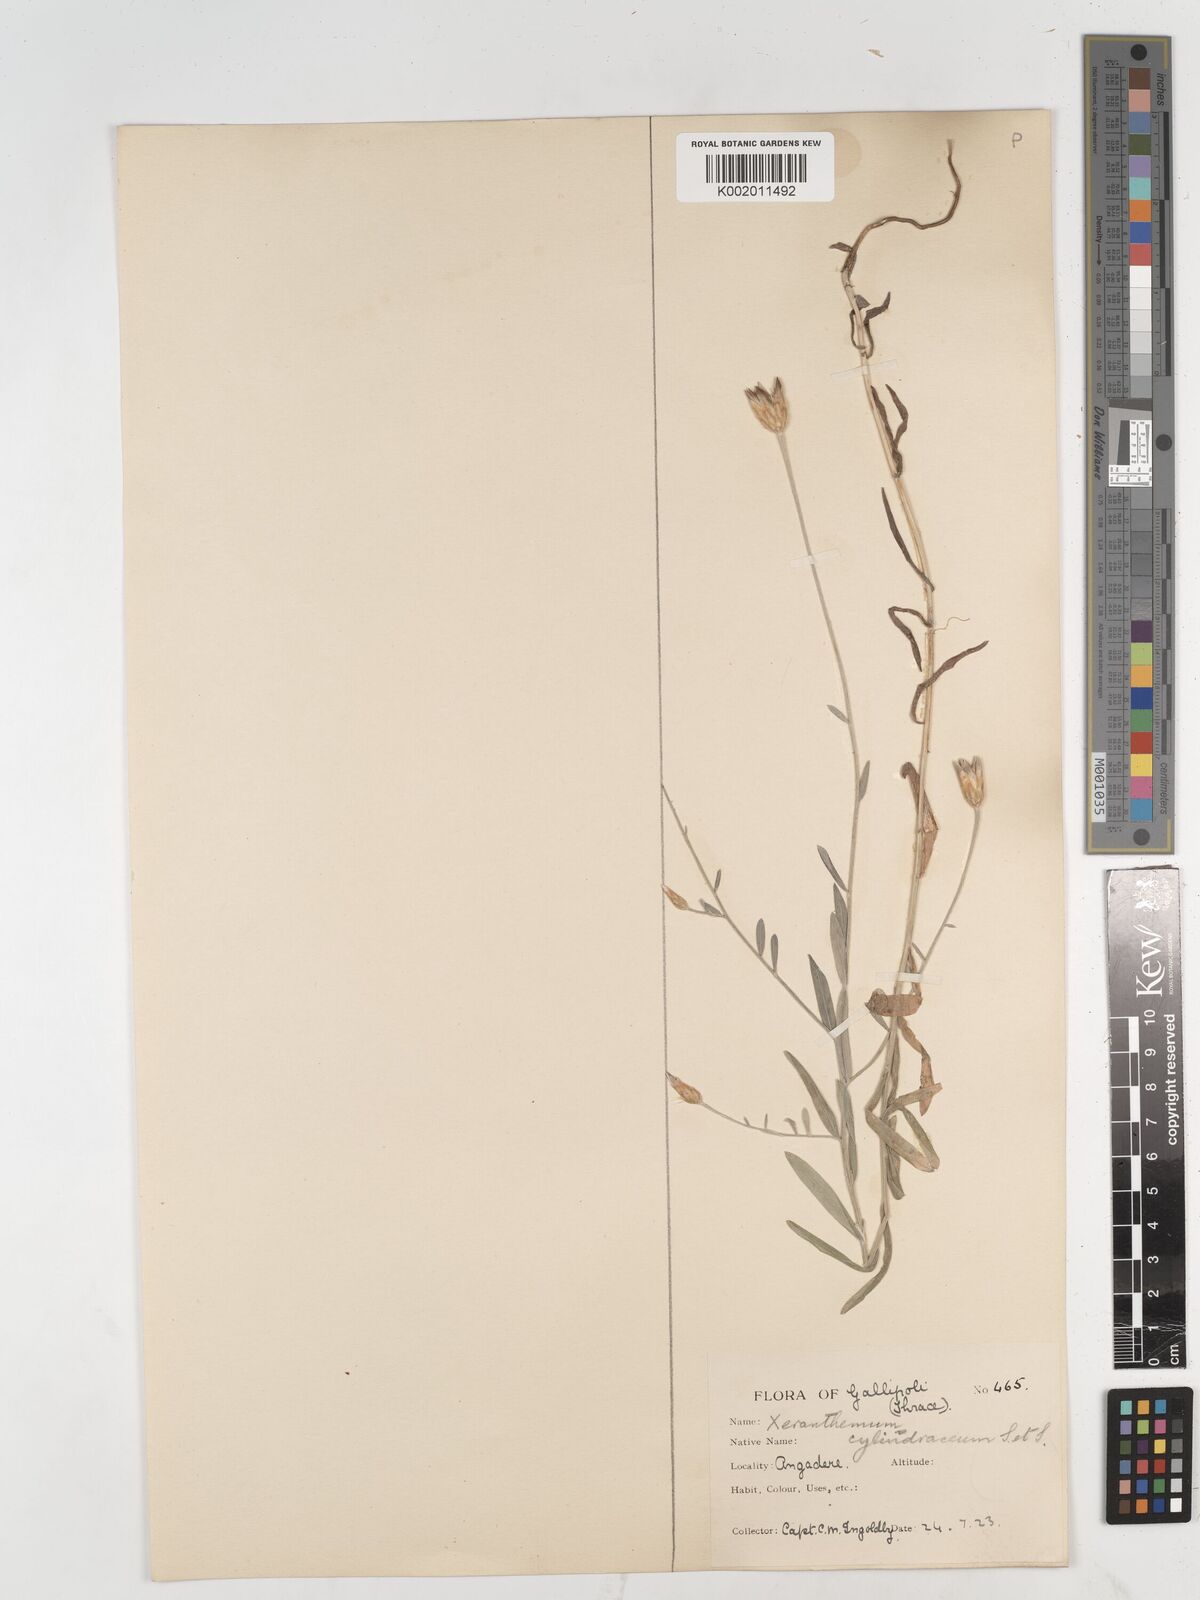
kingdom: Plantae
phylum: Tracheophyta
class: Magnoliopsida
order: Asterales
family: Asteraceae
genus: Xeranthemum
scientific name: Xeranthemum
